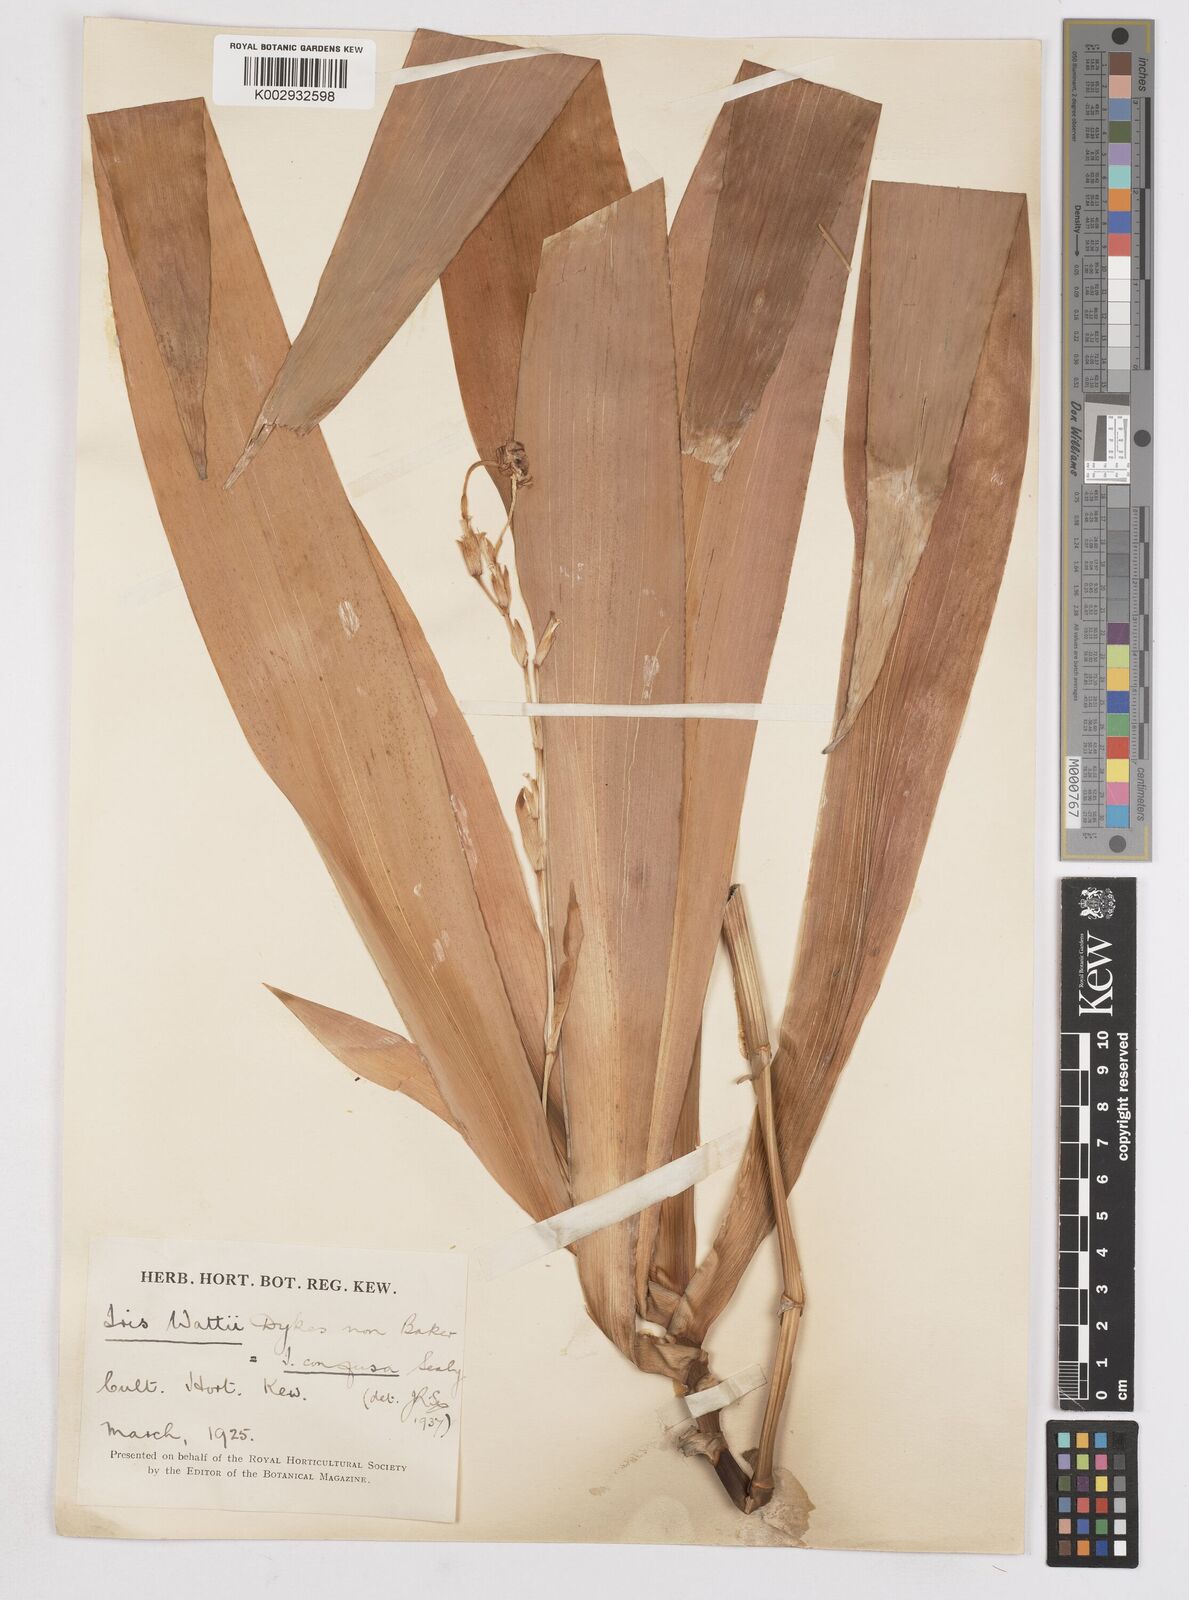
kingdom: Plantae
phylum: Tracheophyta
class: Liliopsida
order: Asparagales
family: Iridaceae
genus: Iris
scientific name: Iris wattii
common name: Fan-shape iris
